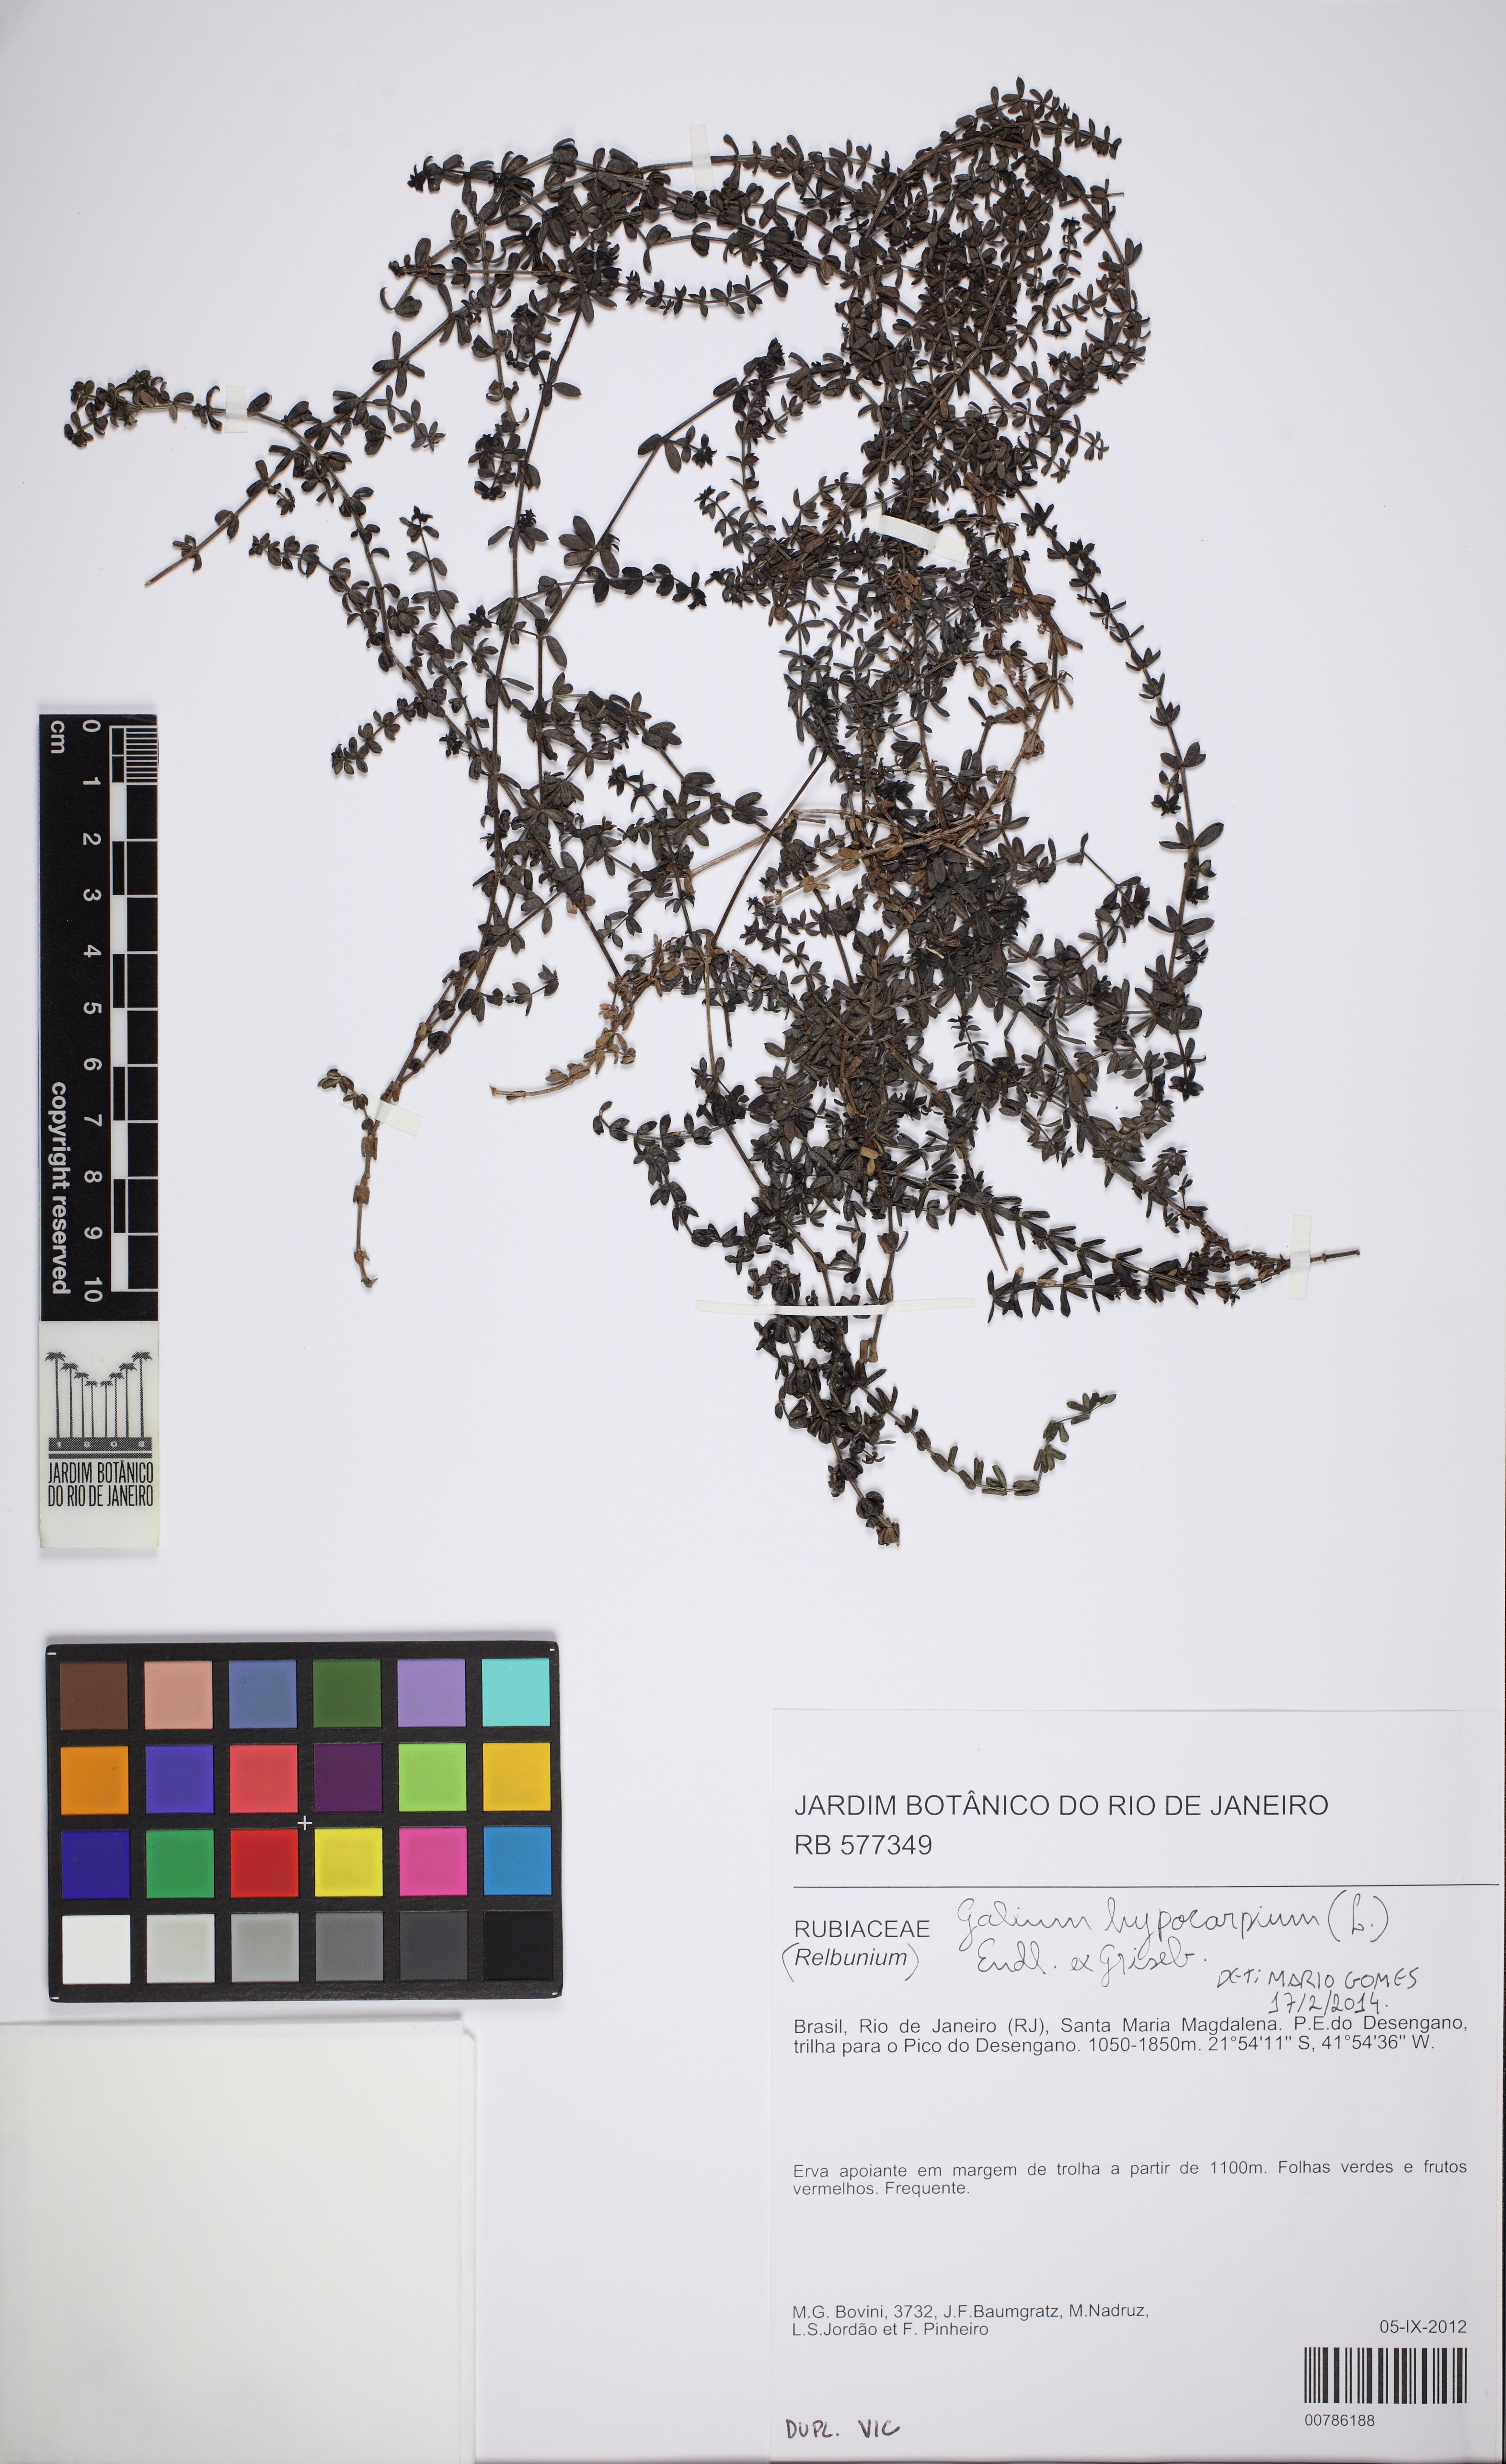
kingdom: Plantae
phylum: Tracheophyta
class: Magnoliopsida
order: Gentianales
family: Rubiaceae
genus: Galium
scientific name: Galium hypocarpium
